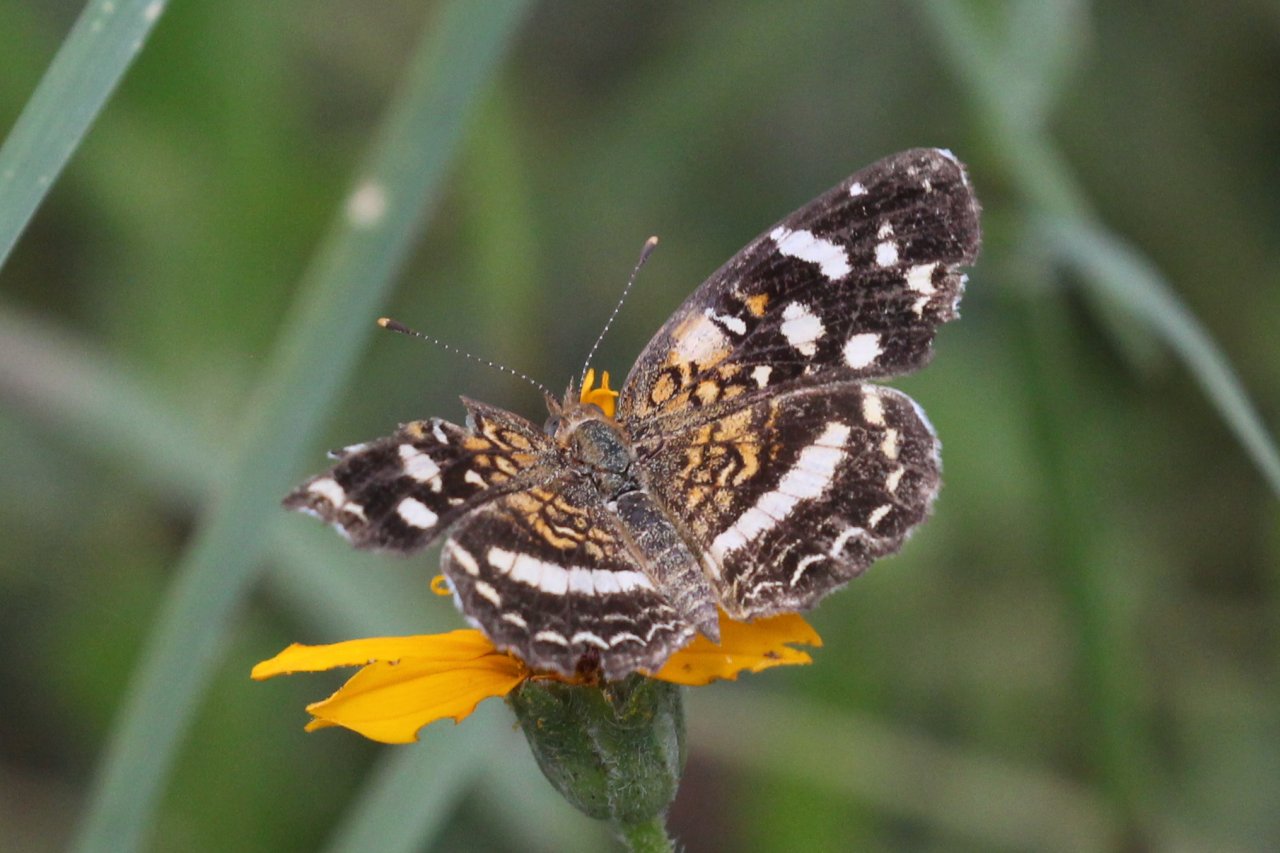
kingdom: Animalia
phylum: Arthropoda
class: Insecta
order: Lepidoptera
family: Nymphalidae
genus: Anthanassa
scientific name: Anthanassa tulcis
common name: Pale-banded Crescent
